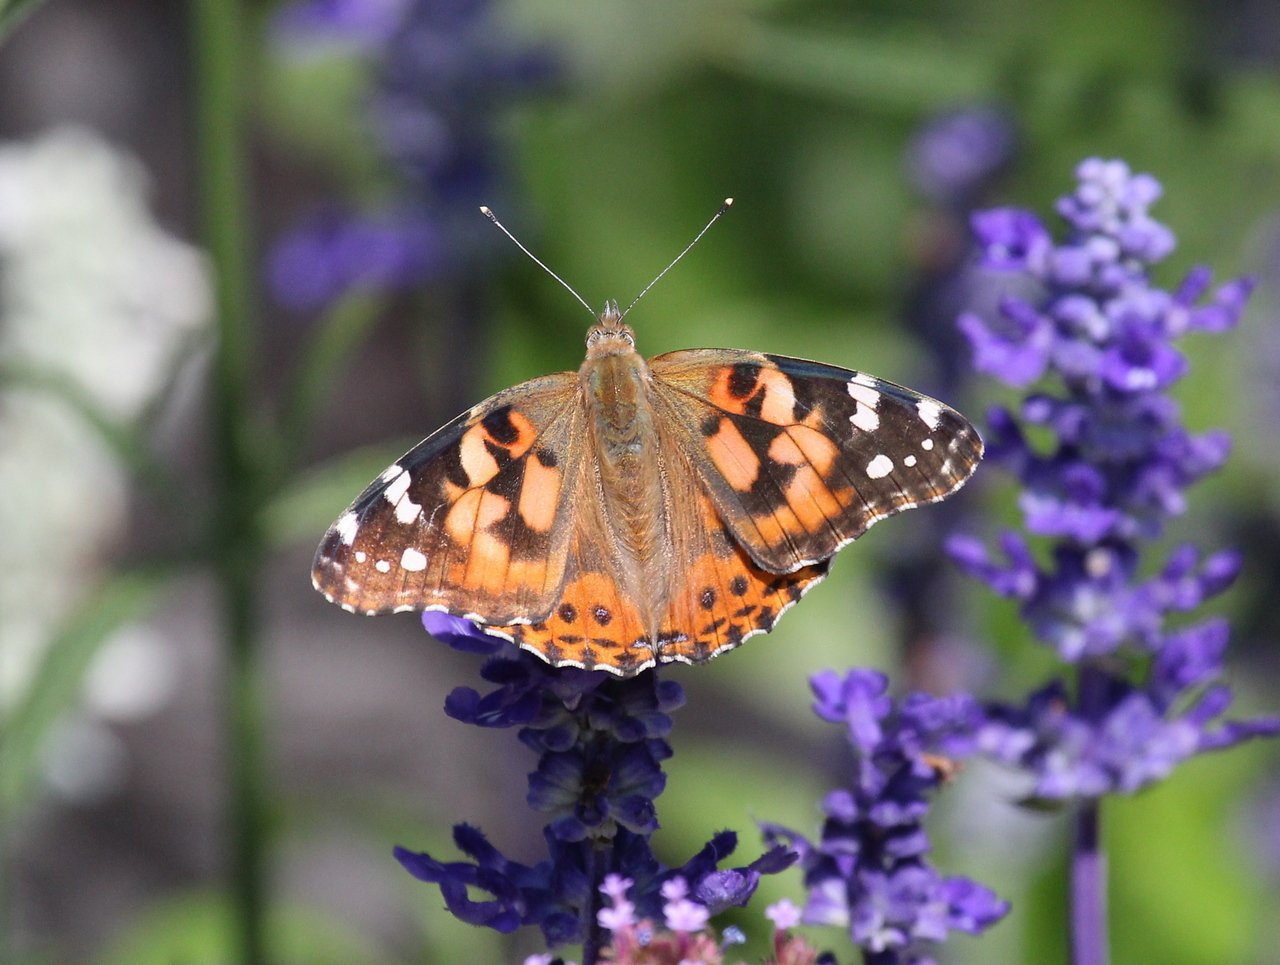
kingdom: Animalia
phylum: Arthropoda
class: Insecta
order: Lepidoptera
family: Nymphalidae
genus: Vanessa
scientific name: Vanessa cardui
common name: Painted Lady
